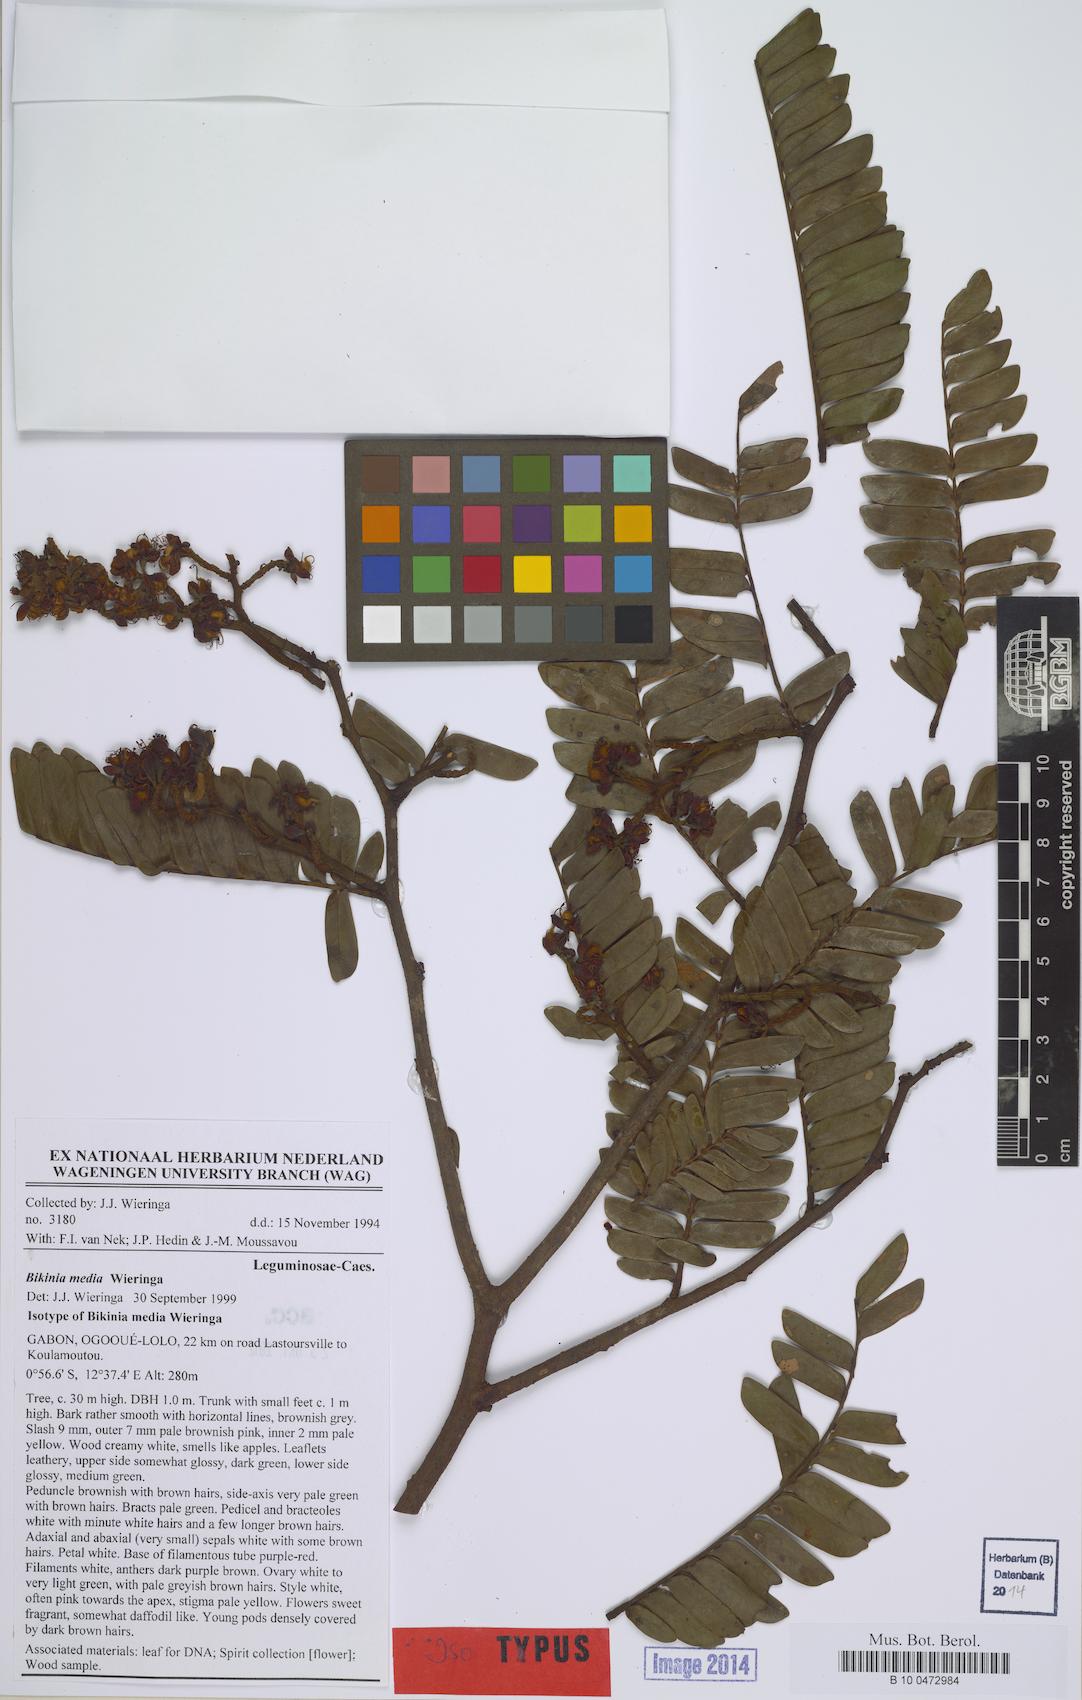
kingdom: Plantae
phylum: Tracheophyta
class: Magnoliopsida
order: Fabales
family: Fabaceae
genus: Bikinia
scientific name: Bikinia media
